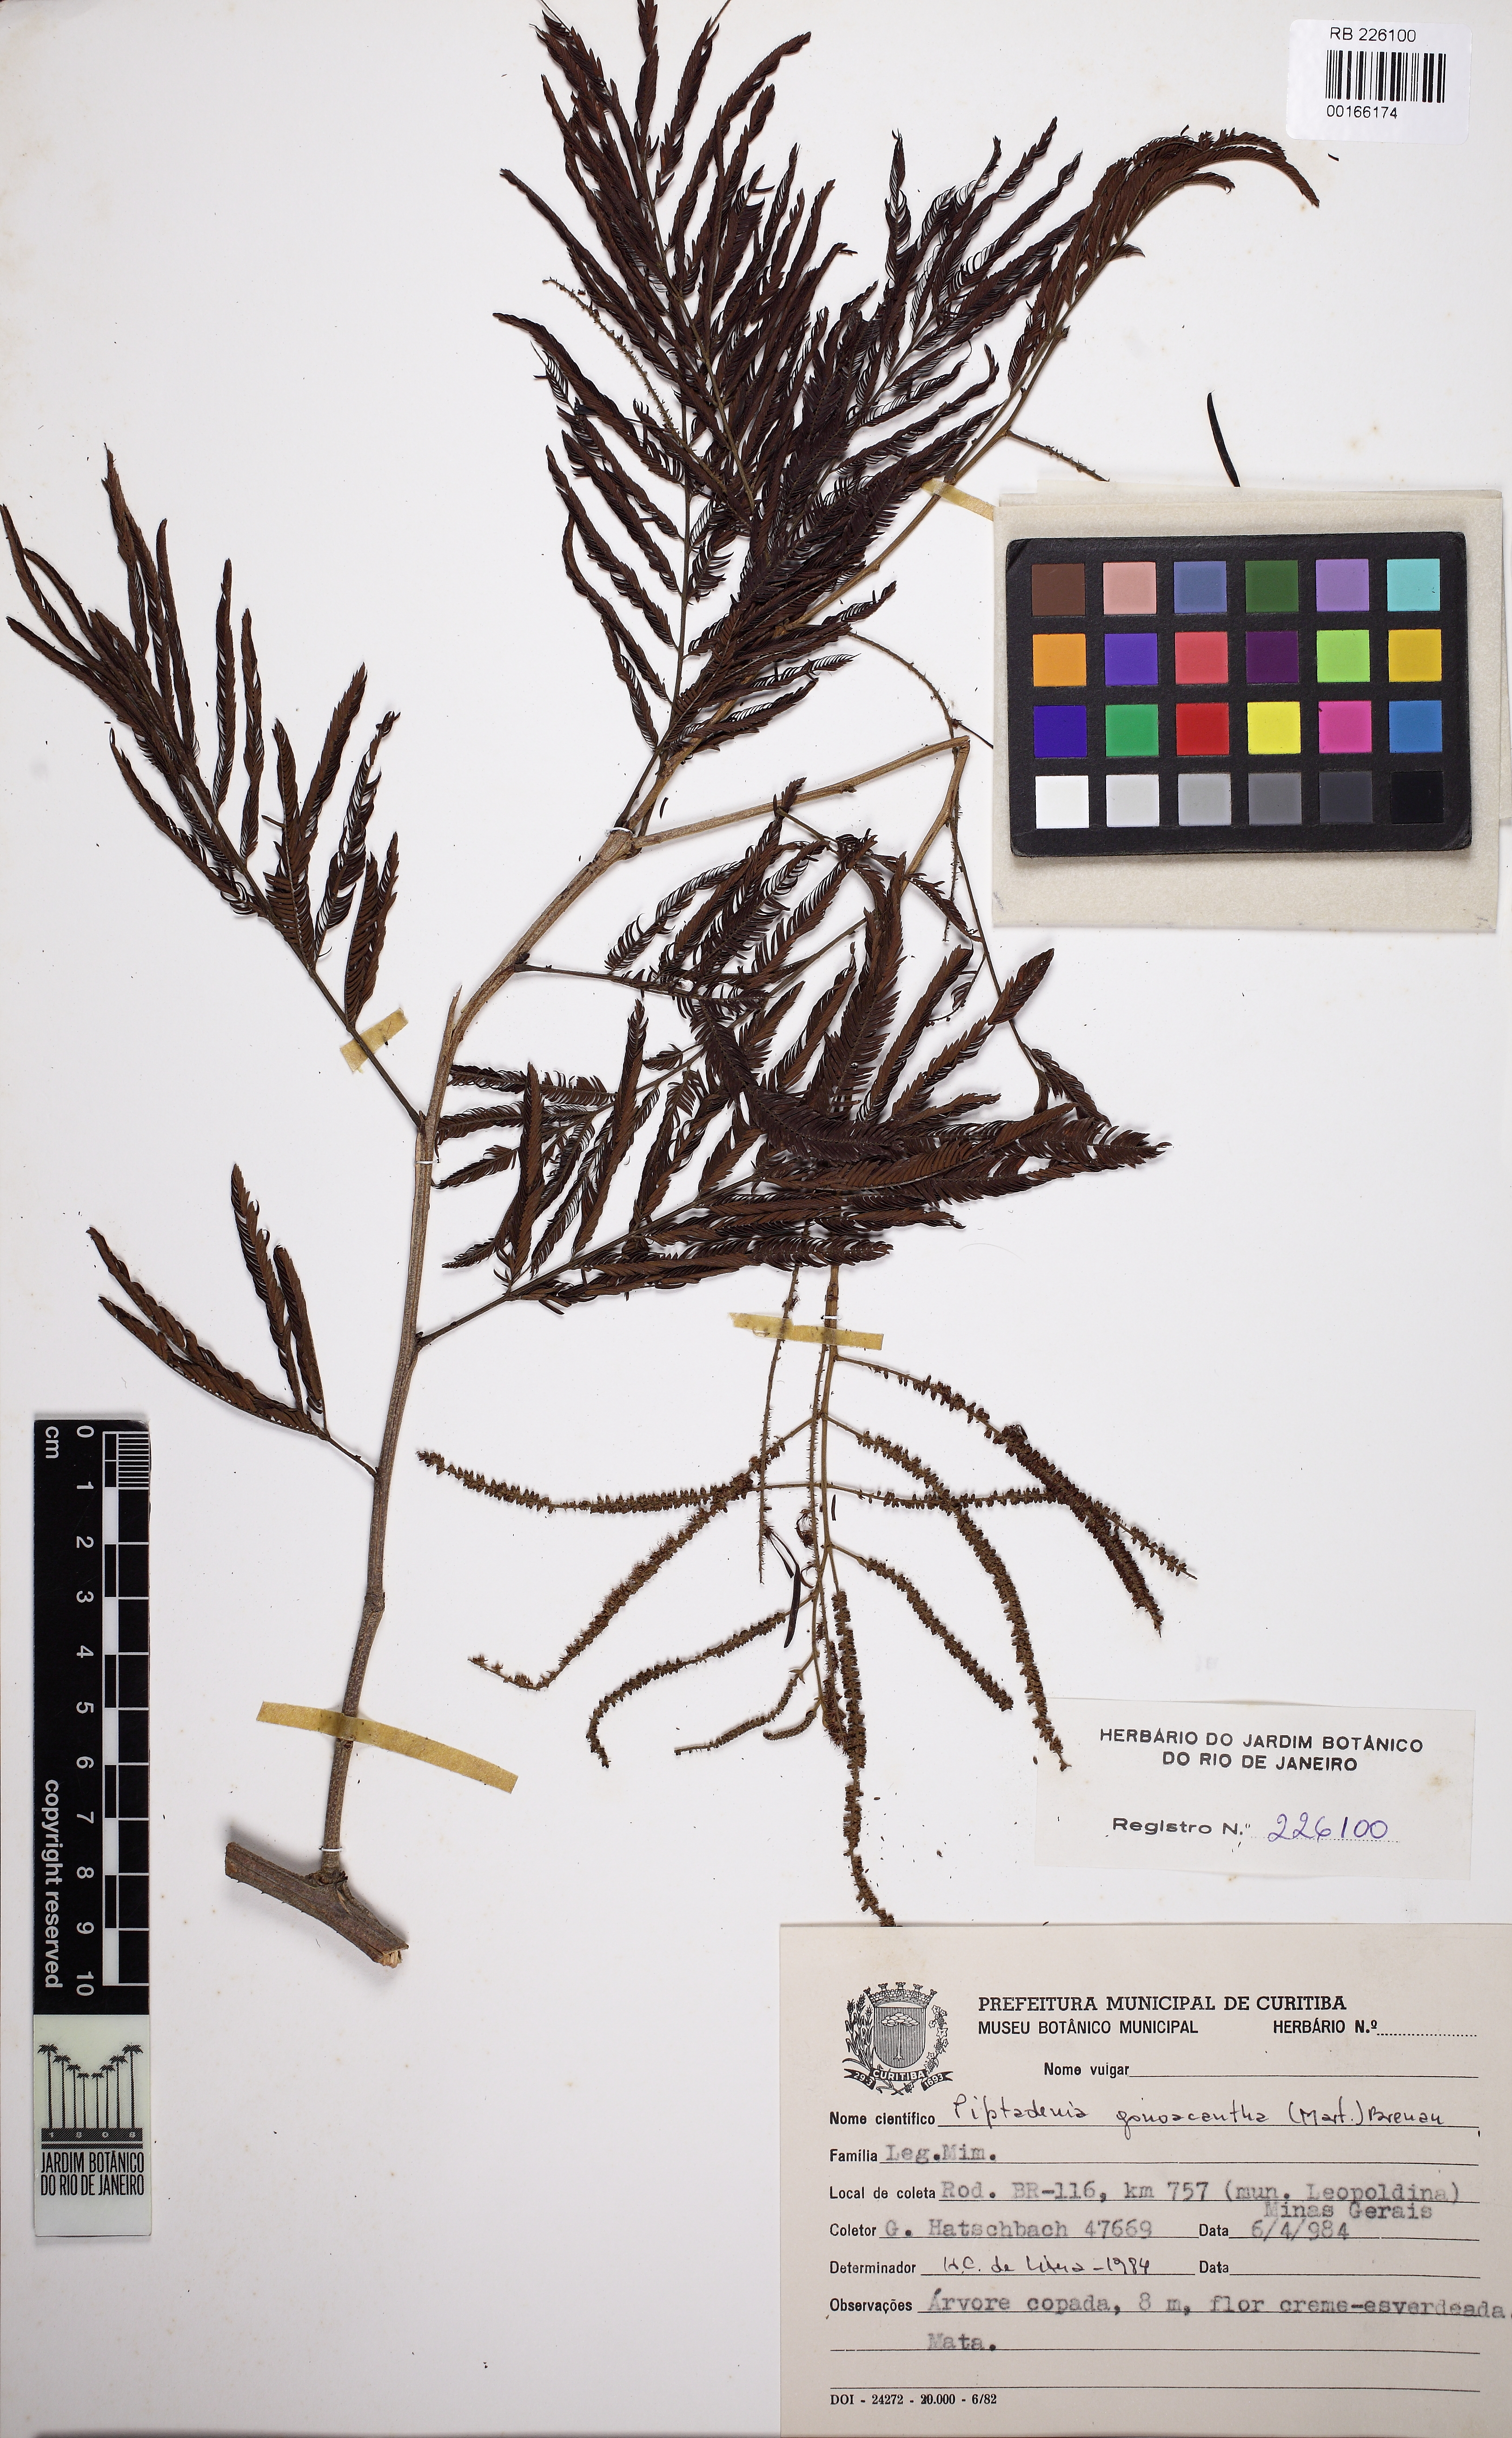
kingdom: Plantae
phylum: Tracheophyta
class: Magnoliopsida
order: Fabales
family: Fabaceae
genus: Piptadenia
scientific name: Piptadenia gonoacantha
